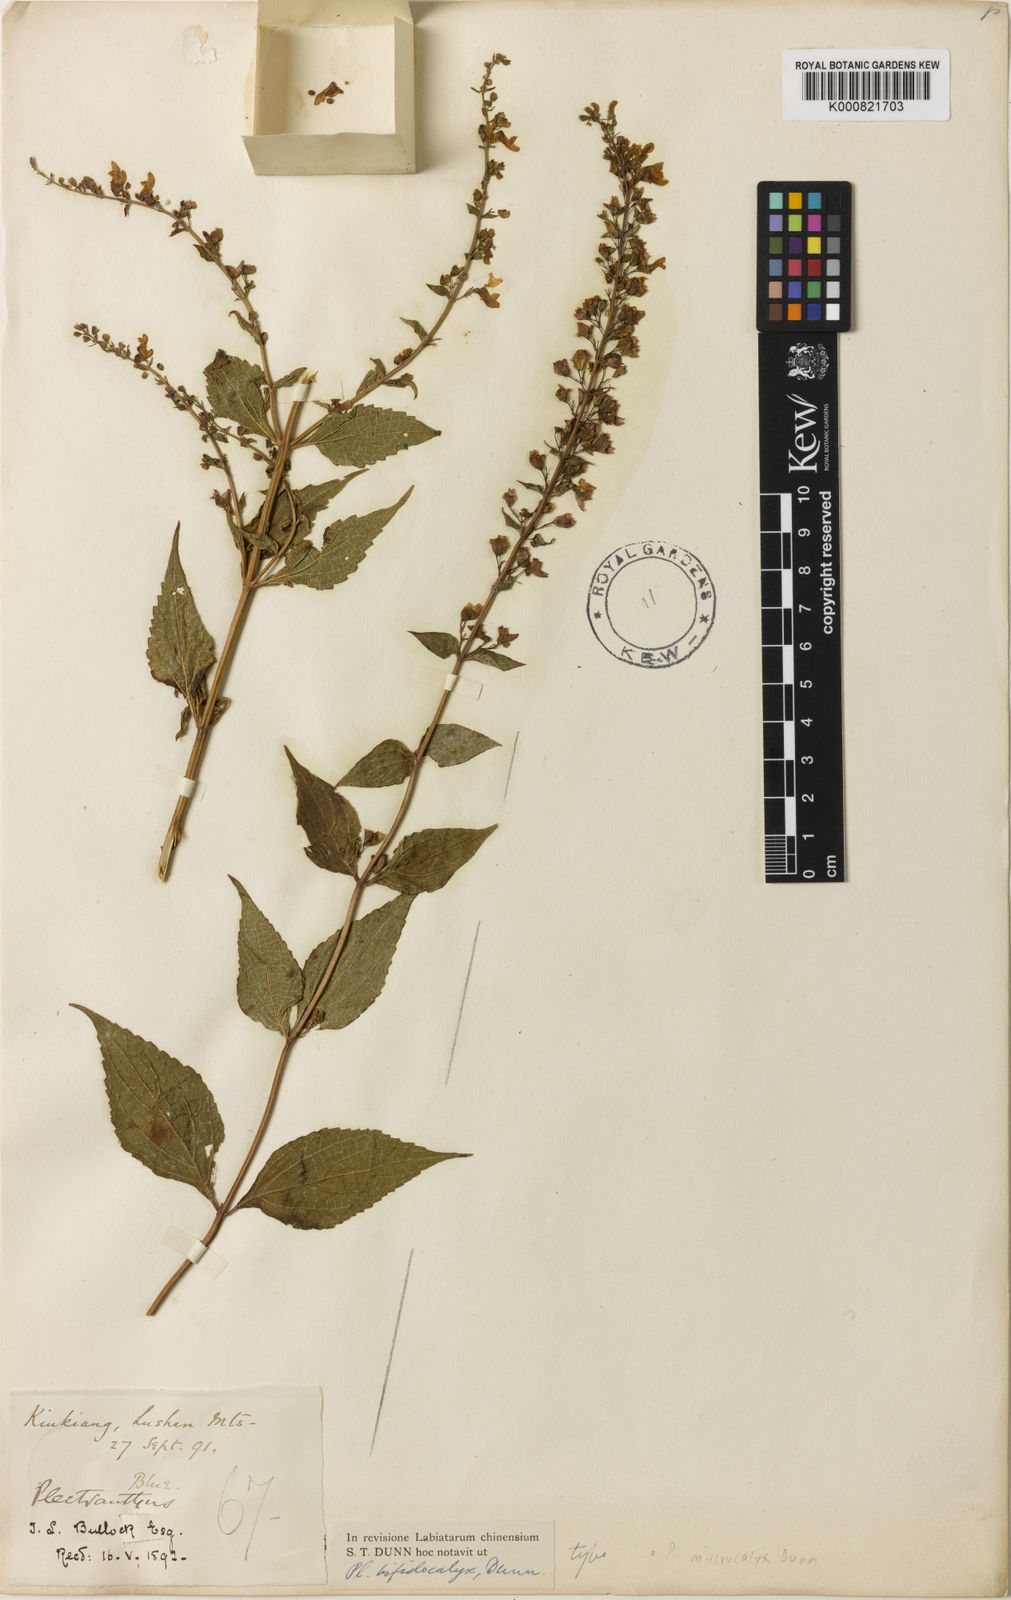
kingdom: Plantae
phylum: Tracheophyta
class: Magnoliopsida
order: Lamiales
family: Lamiaceae
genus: Isodon
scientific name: Isodon
